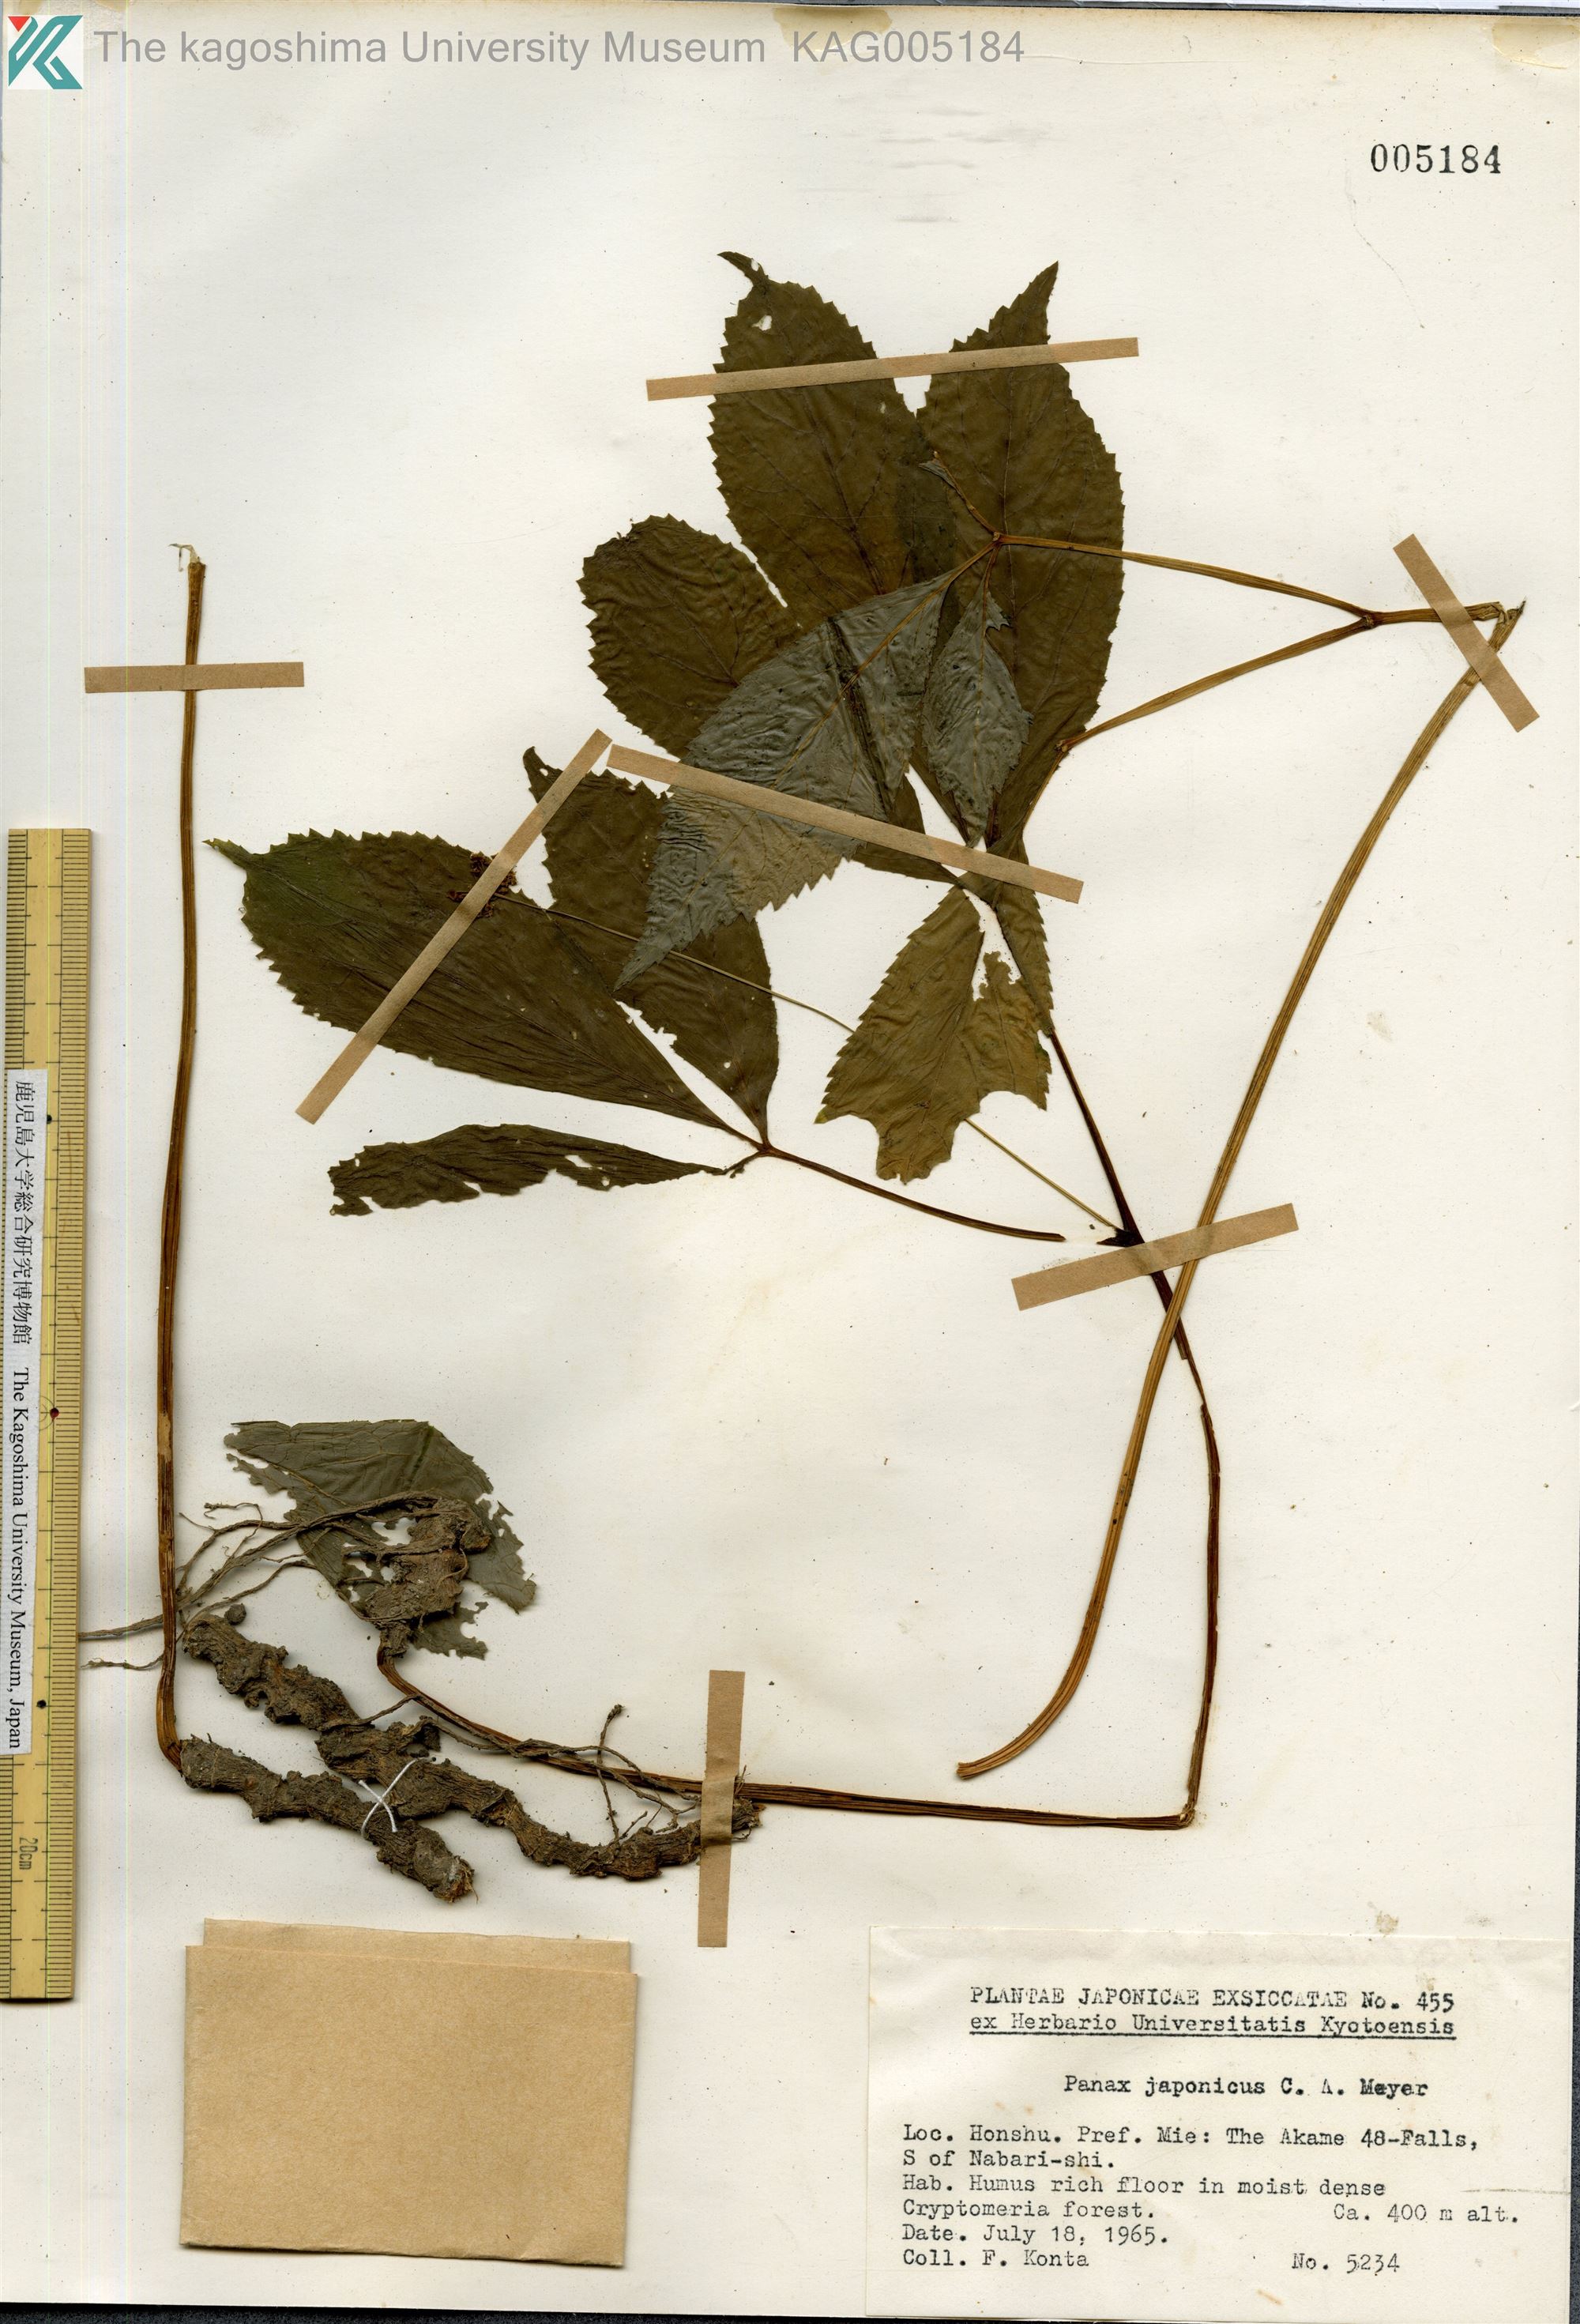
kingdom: Plantae
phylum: Tracheophyta
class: Magnoliopsida
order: Apiales
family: Araliaceae
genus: Panax
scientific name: Panax japonicus
